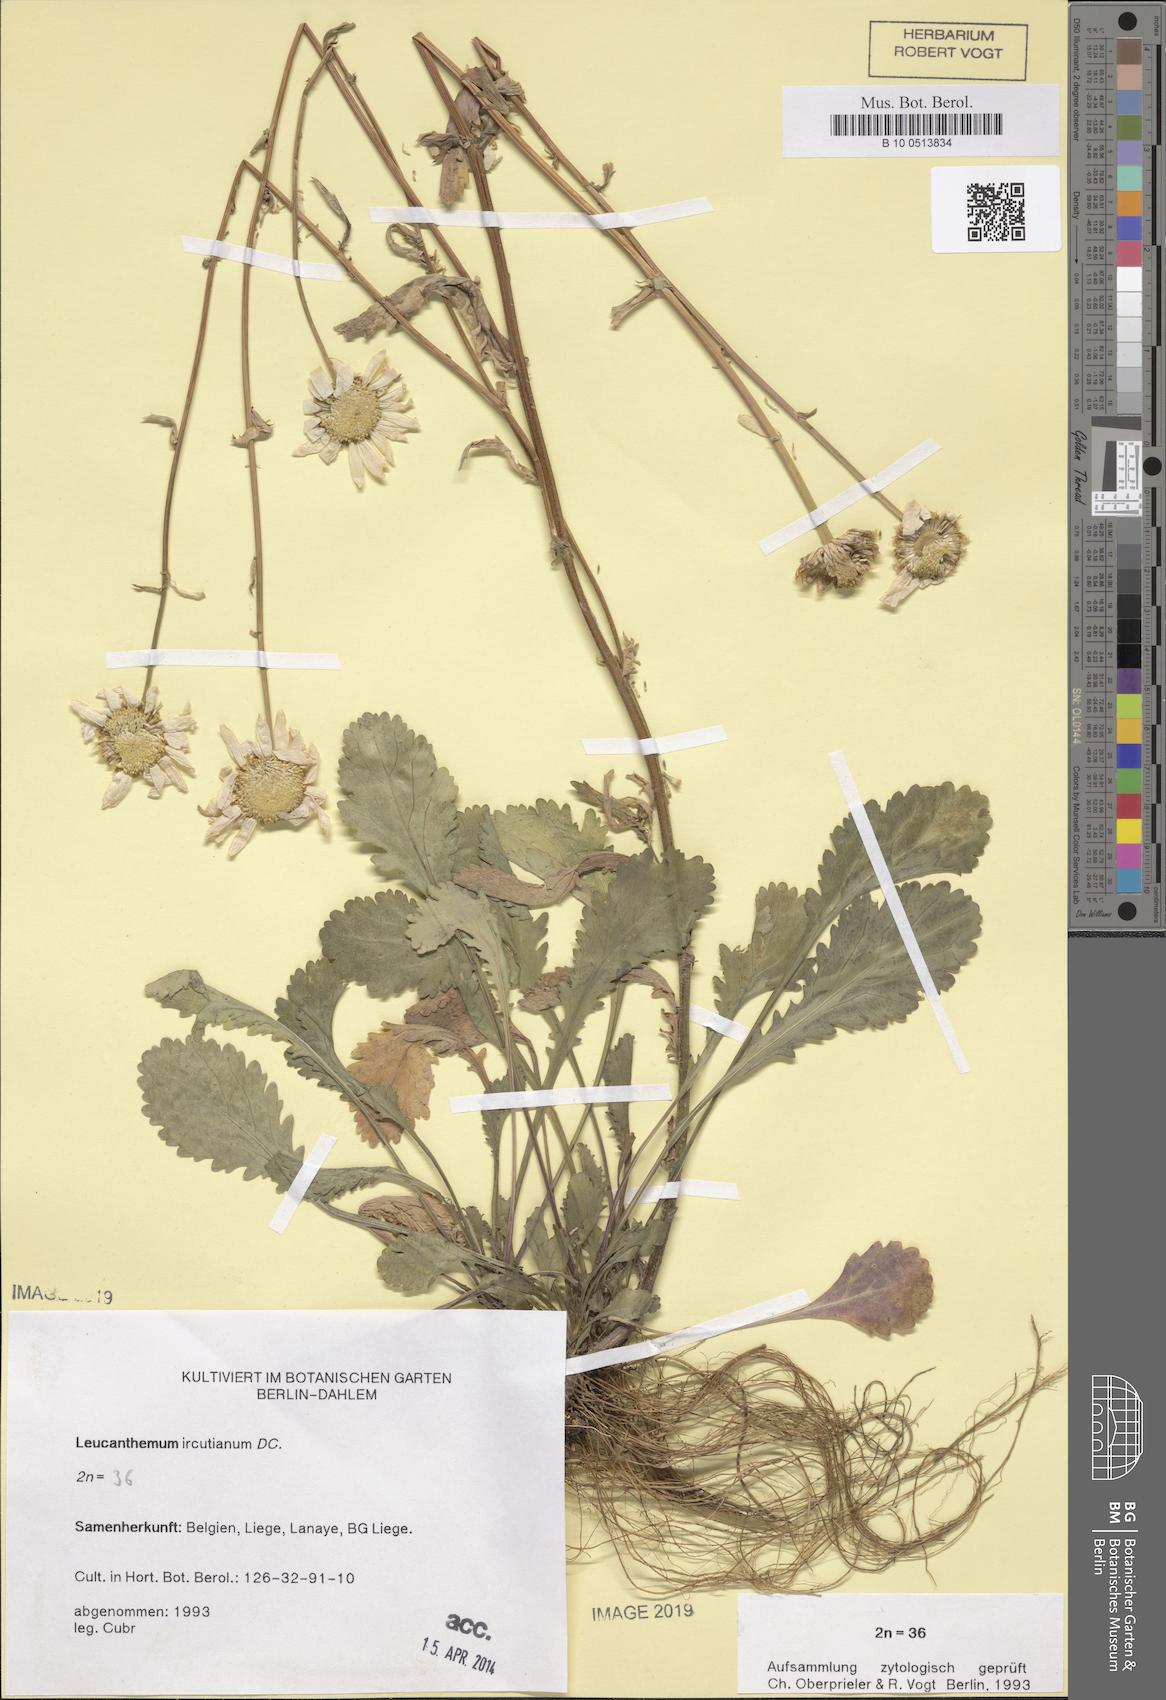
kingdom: Plantae
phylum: Tracheophyta
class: Magnoliopsida
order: Asterales
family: Asteraceae
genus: Leucanthemum
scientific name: Leucanthemum ircutianum
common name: Daisy
